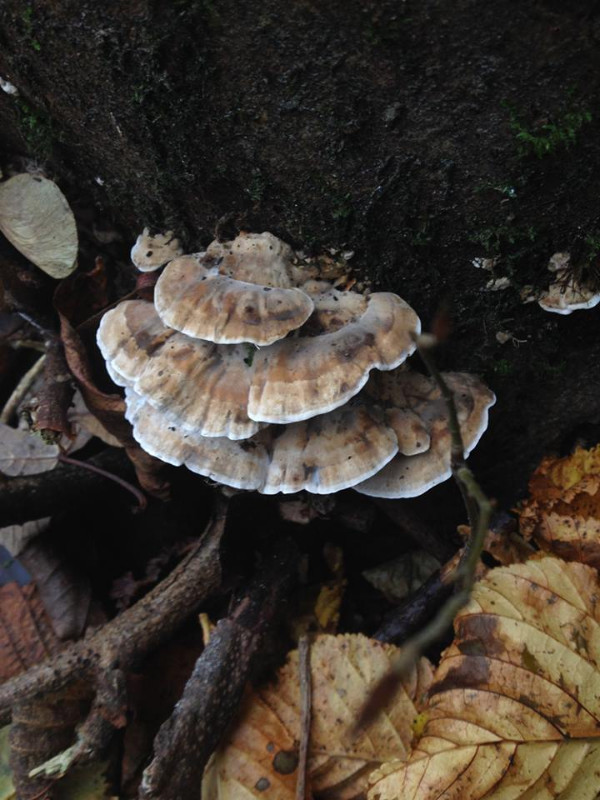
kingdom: Fungi
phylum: Basidiomycota
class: Agaricomycetes
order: Polyporales
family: Phanerochaetaceae
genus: Bjerkandera
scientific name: Bjerkandera adusta
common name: sveden sodporesvamp
